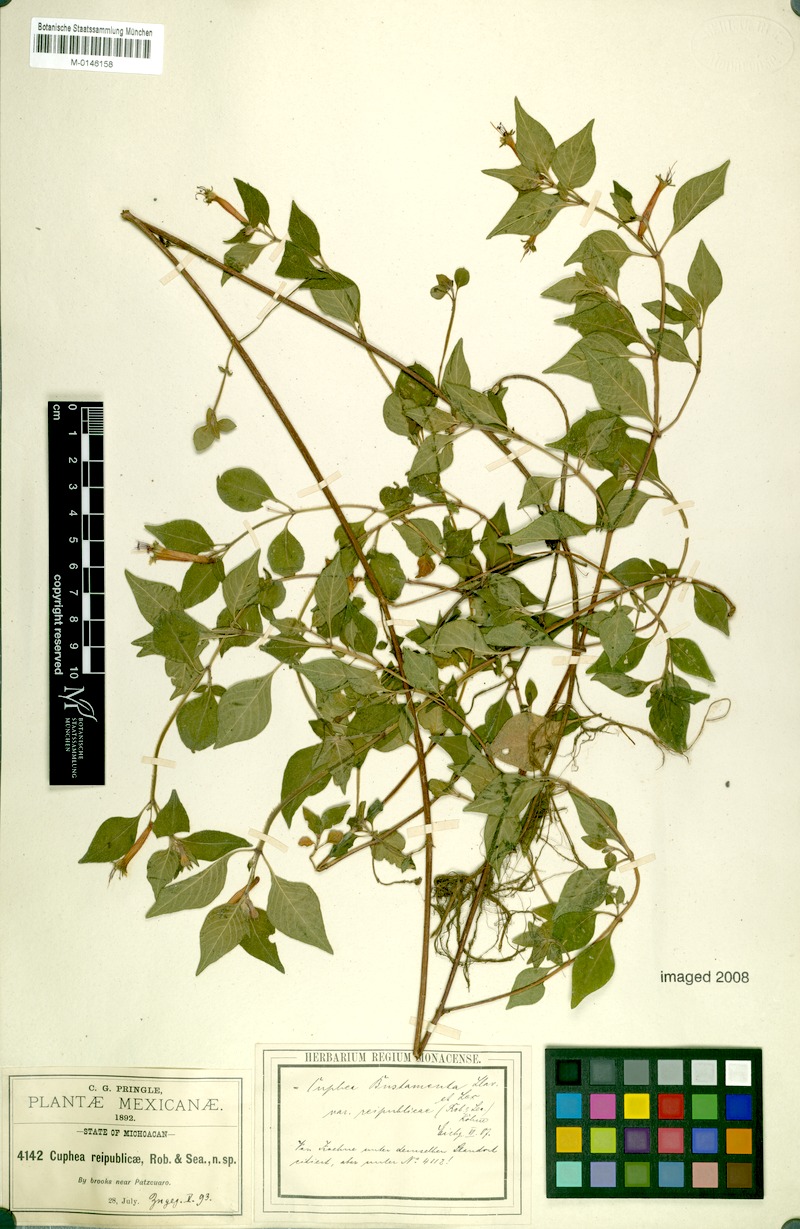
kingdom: Plantae
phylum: Tracheophyta
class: Magnoliopsida
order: Myrtales
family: Lythraceae
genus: Cuphea
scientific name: Cuphea bustamanta
